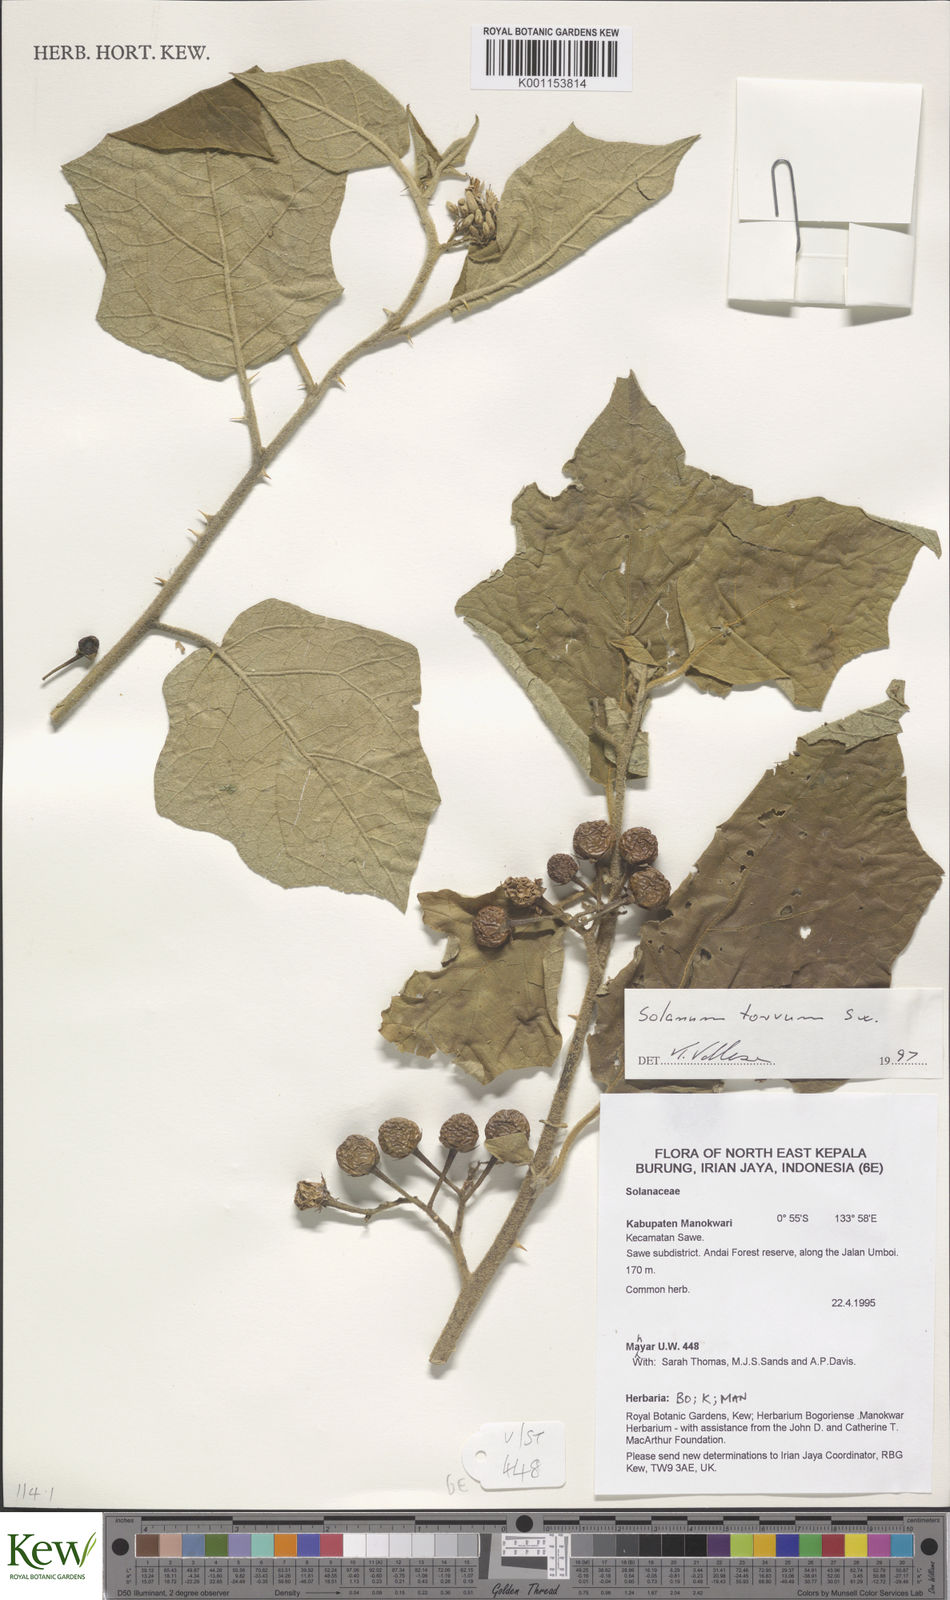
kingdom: Plantae
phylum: Tracheophyta
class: Magnoliopsida
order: Solanales
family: Solanaceae
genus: Solanum
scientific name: Solanum torvum
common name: Turkey berry
